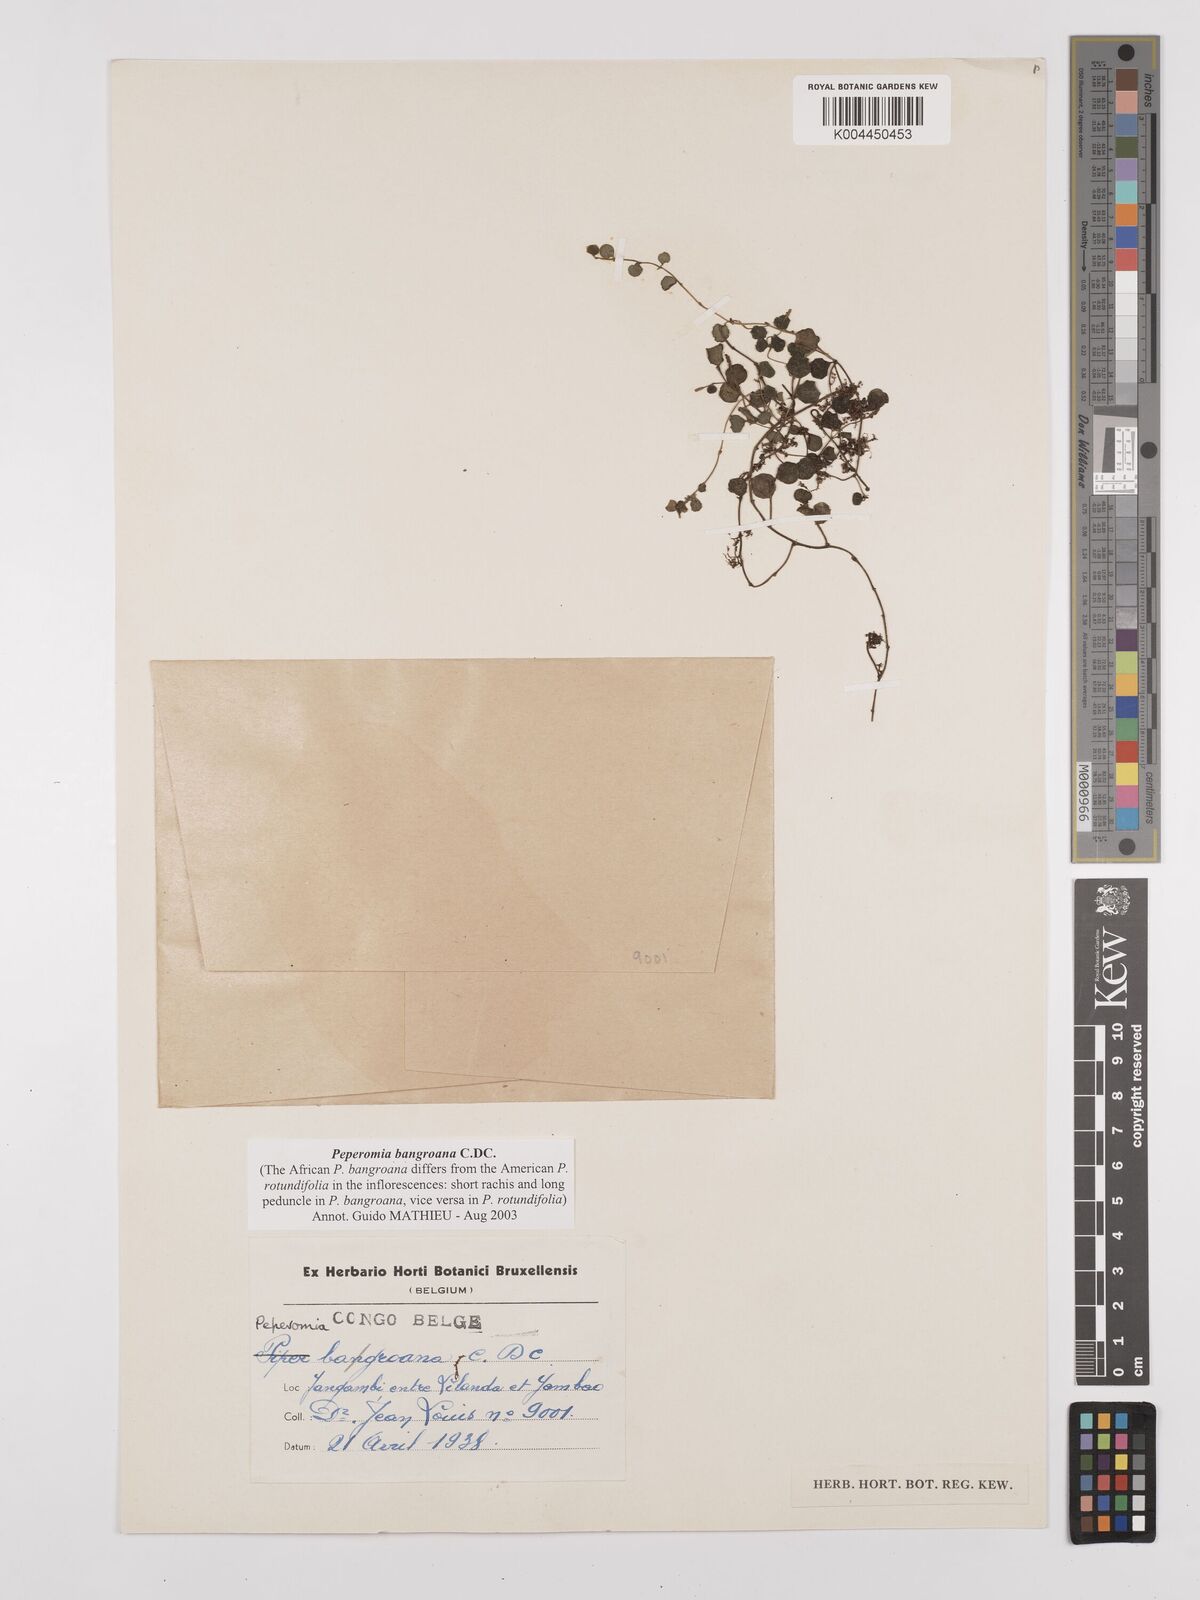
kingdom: Plantae
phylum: Tracheophyta
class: Magnoliopsida
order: Piperales
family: Piperaceae
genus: Peperomia
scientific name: Peperomia bangroana
